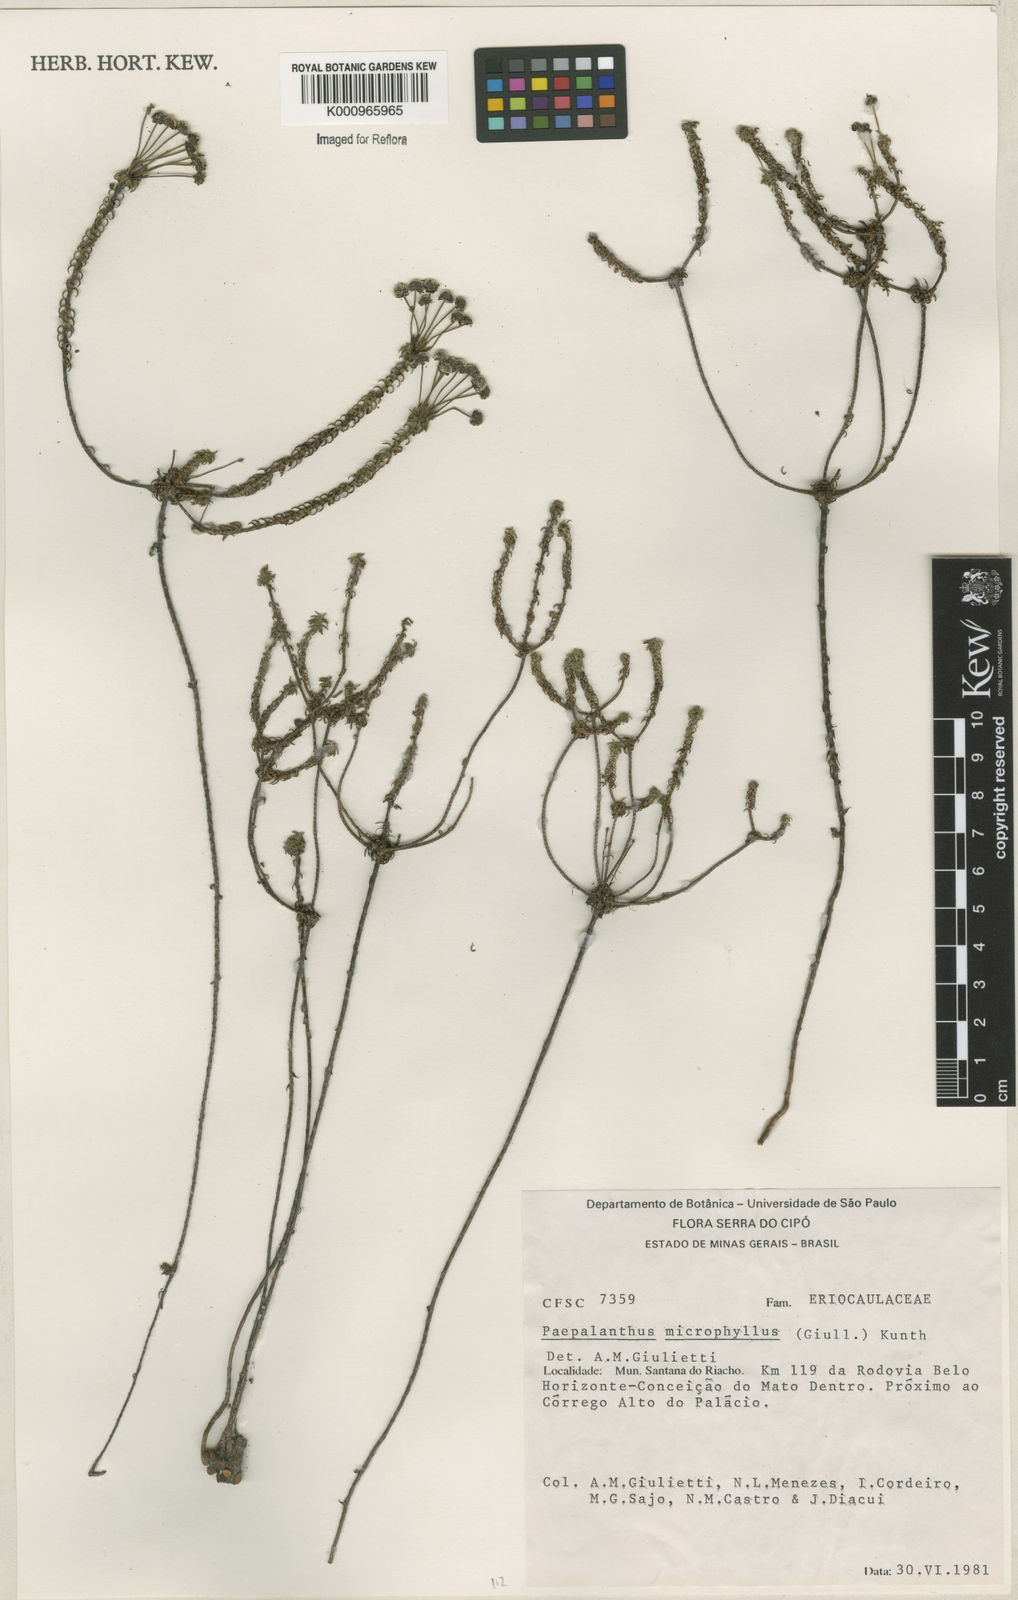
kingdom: Plantae
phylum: Tracheophyta
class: Liliopsida
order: Poales
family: Eriocaulaceae
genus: Paepalanthus
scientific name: Paepalanthus dasynema
